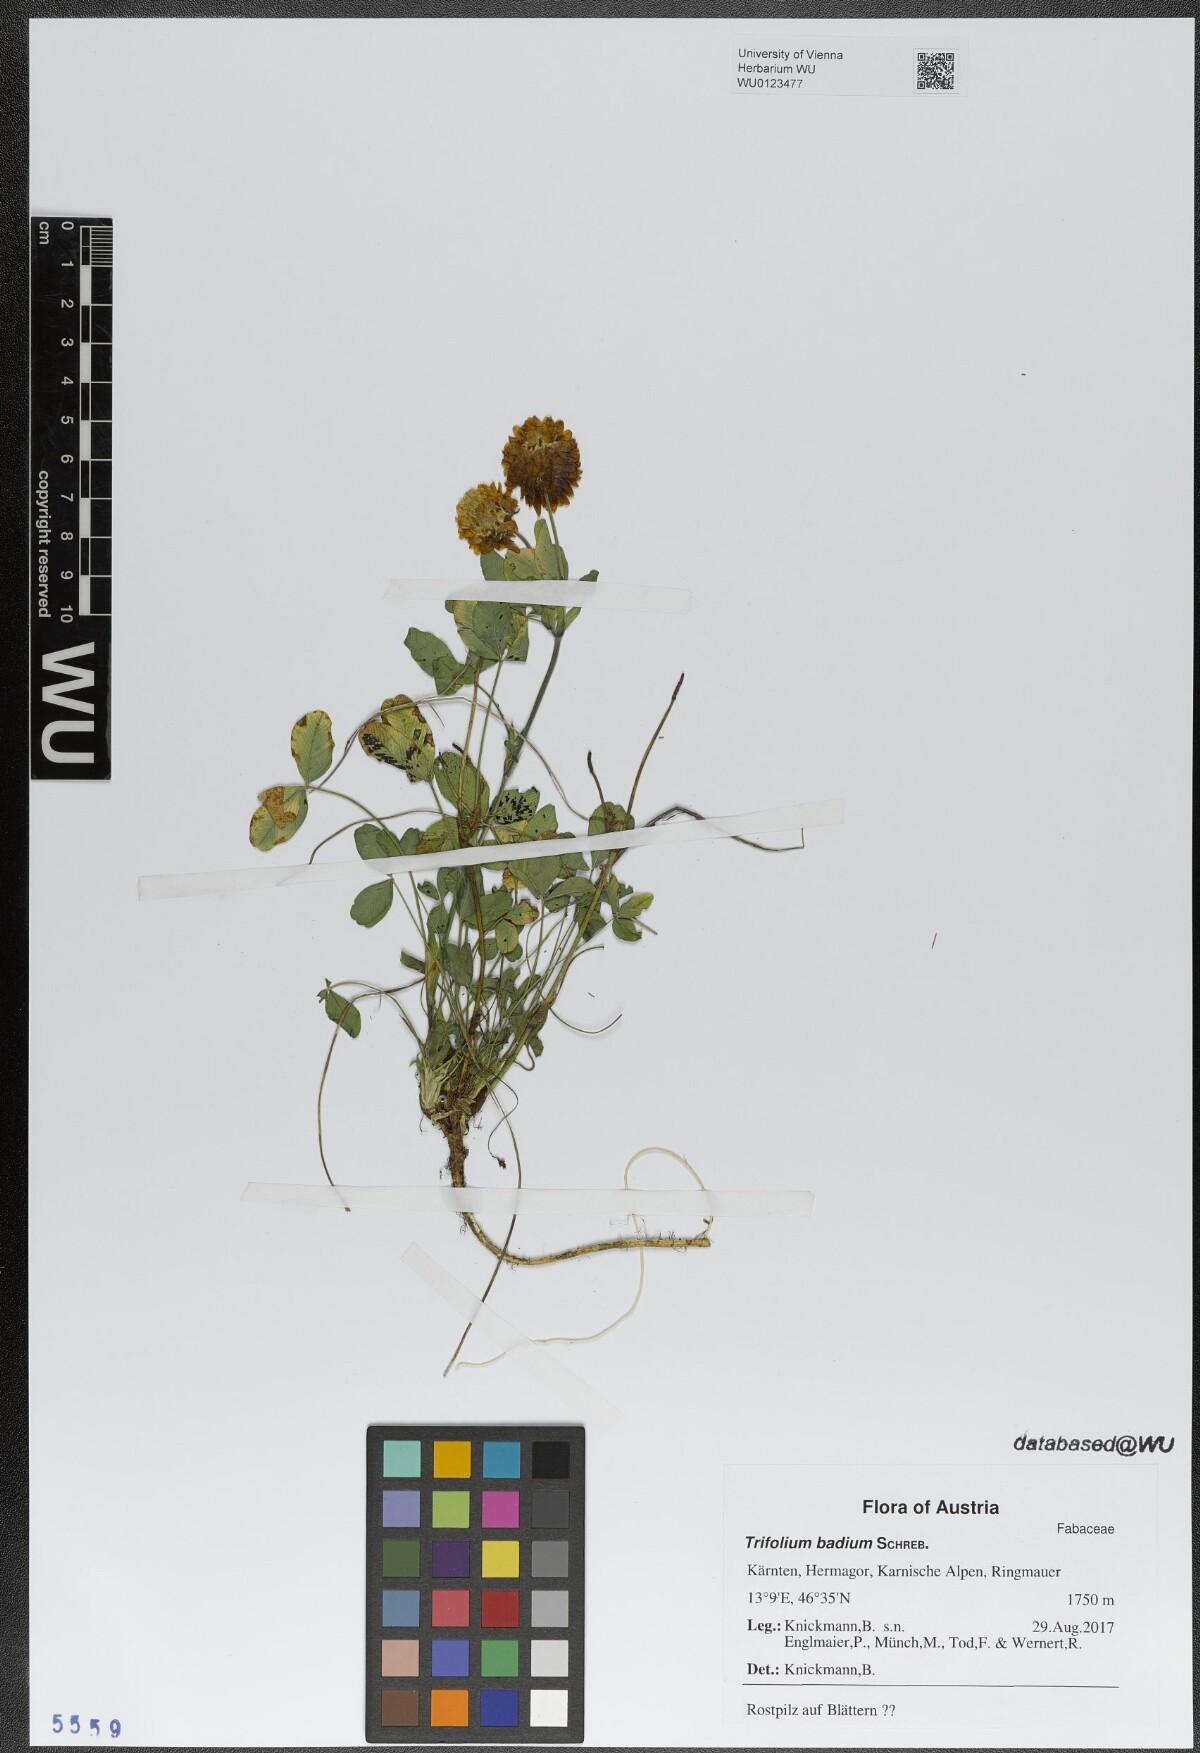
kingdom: Plantae
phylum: Tracheophyta
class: Magnoliopsida
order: Fabales
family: Fabaceae
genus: Trifolium
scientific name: Trifolium badium
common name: Brown clover
